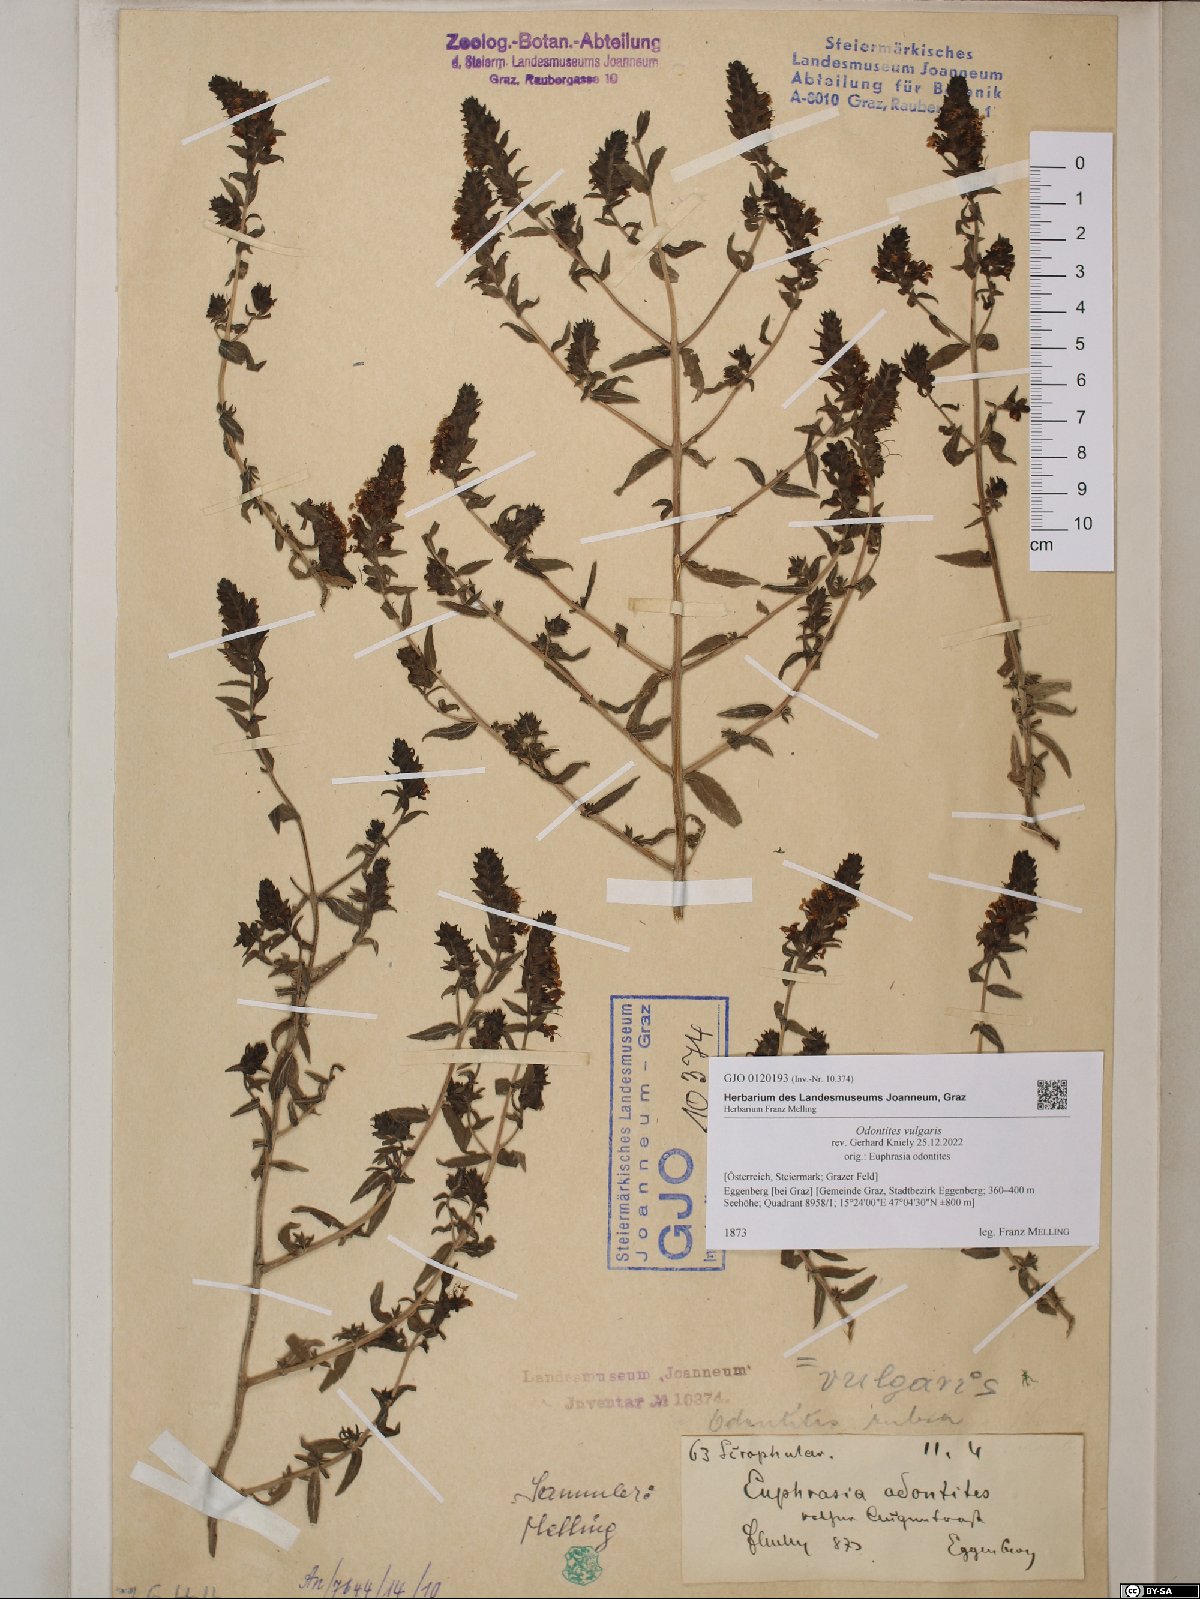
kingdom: Plantae
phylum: Tracheophyta
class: Magnoliopsida
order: Lamiales
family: Orobanchaceae
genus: Odontites
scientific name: Odontites vulgaris
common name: Broomrape
